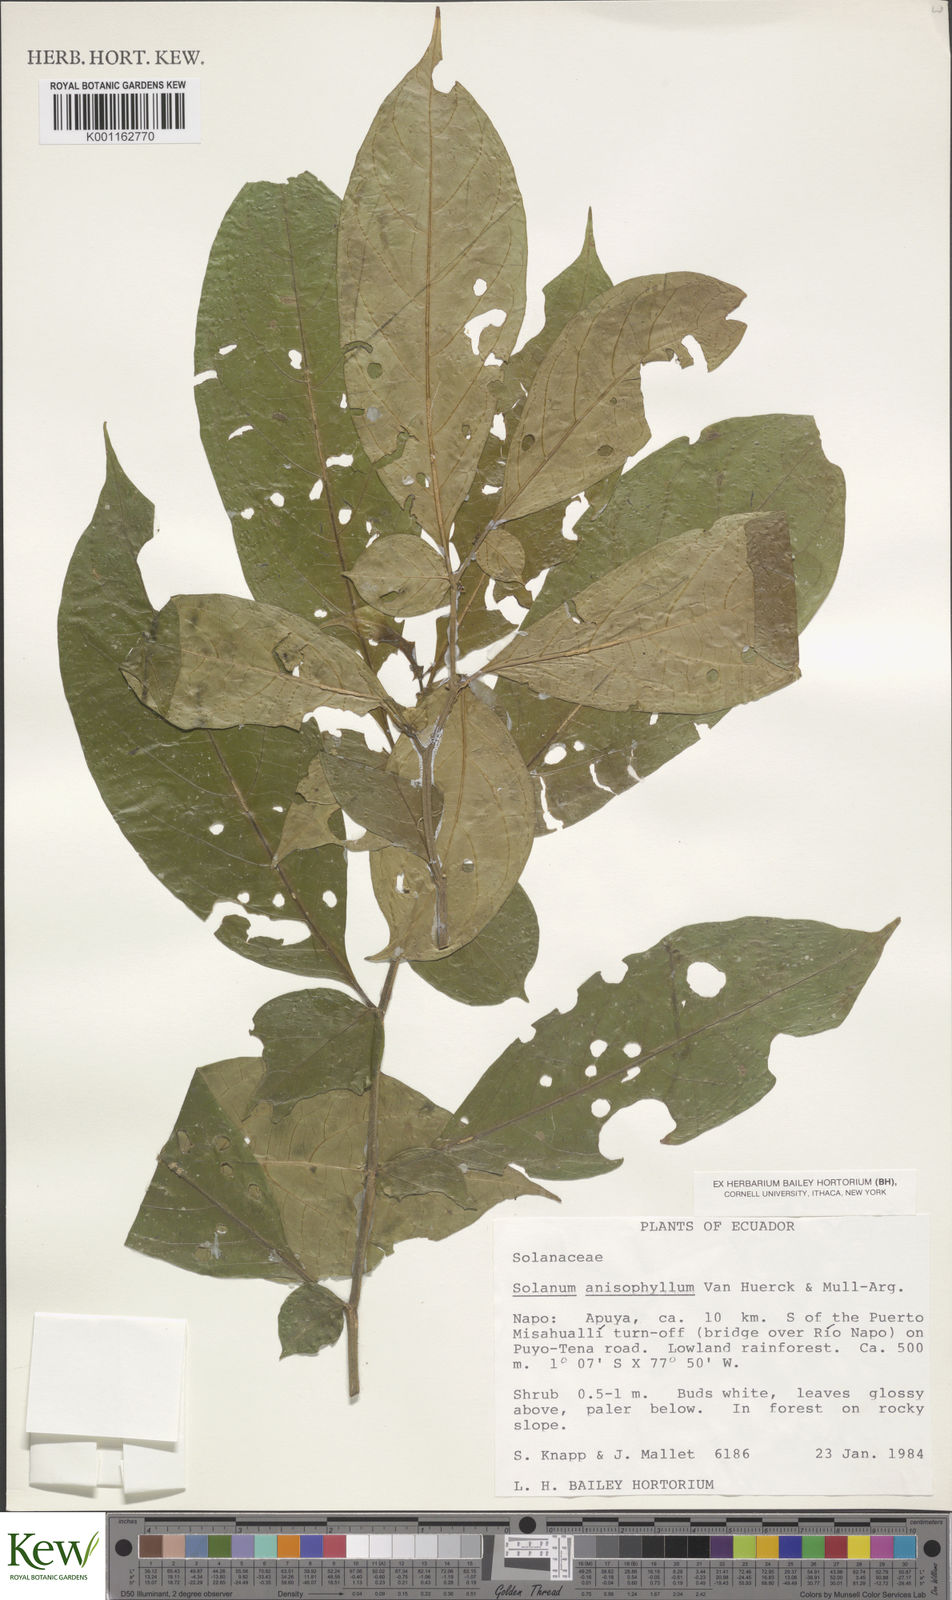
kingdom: Plantae
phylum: Tracheophyta
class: Magnoliopsida
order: Solanales
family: Solanaceae
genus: Solanum
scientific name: Solanum
